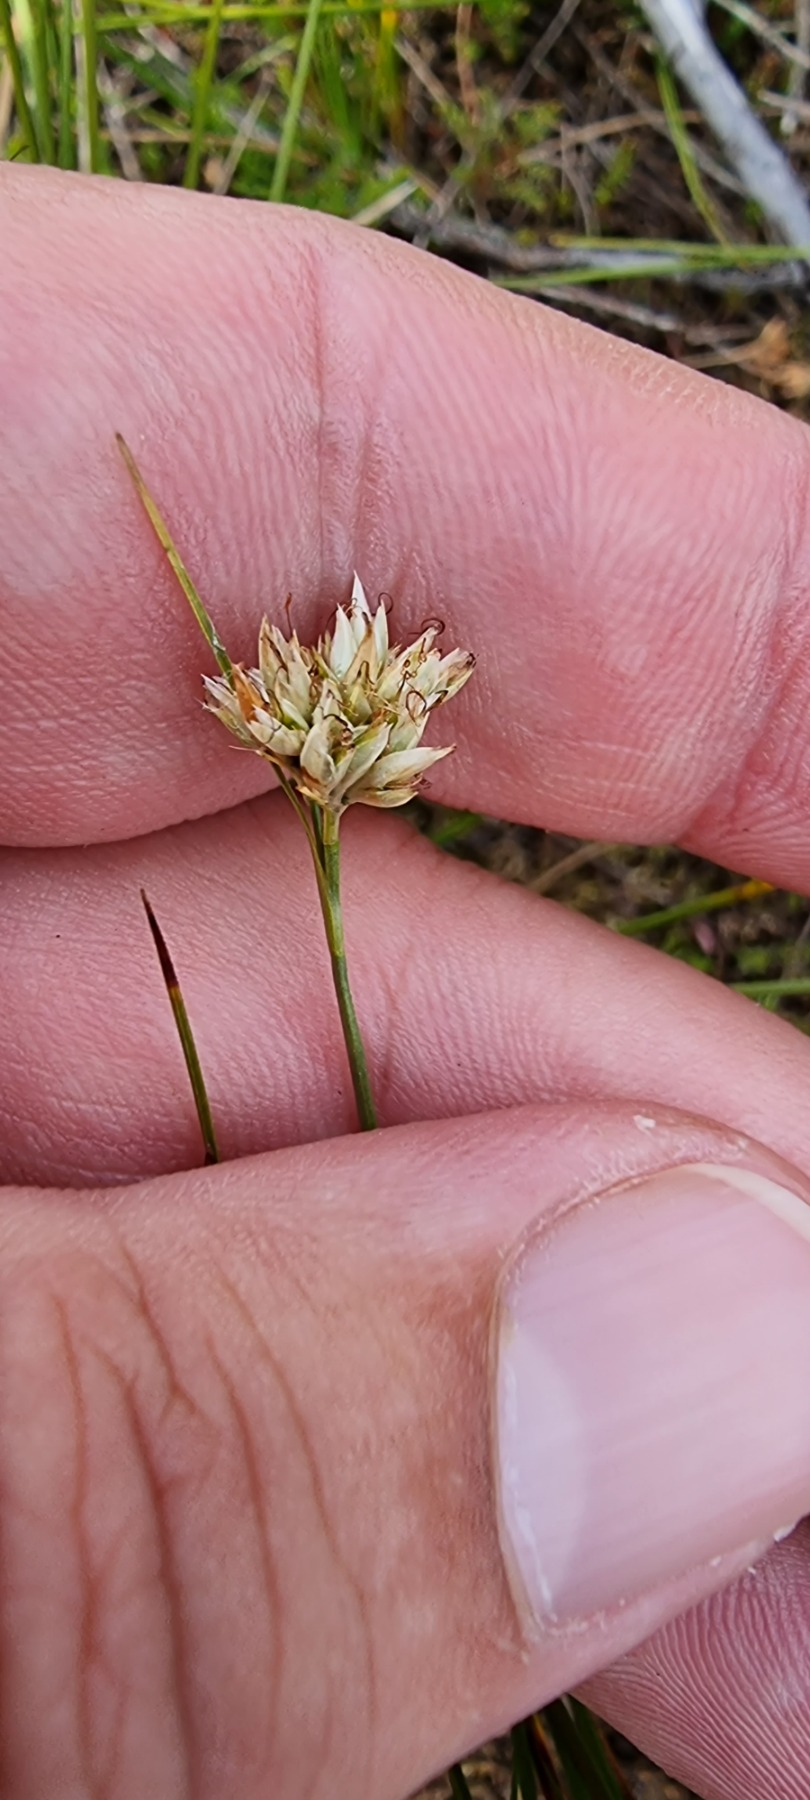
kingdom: Plantae
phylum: Tracheophyta
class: Liliopsida
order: Poales
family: Cyperaceae
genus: Rhynchospora
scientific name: Rhynchospora alba
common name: Hvid næbfrø
